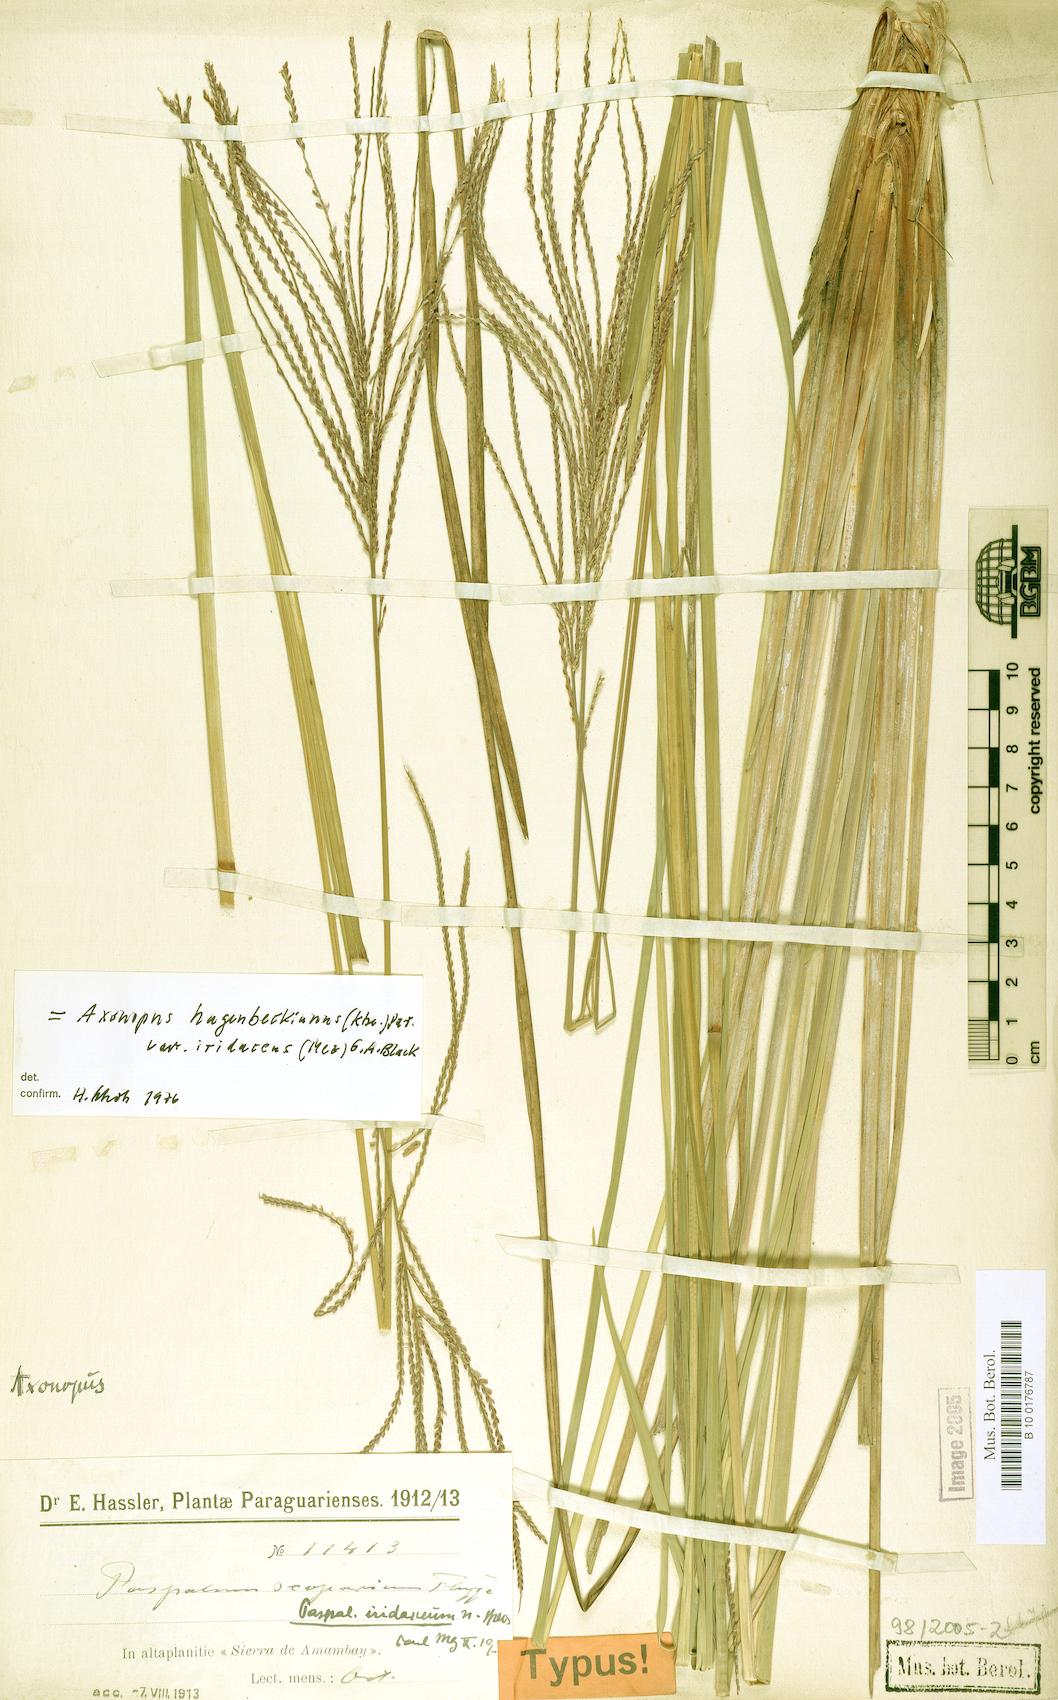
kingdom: Plantae
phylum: Tracheophyta
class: Liliopsida
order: Poales
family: Poaceae
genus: Axonopus
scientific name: Axonopus suffultus
